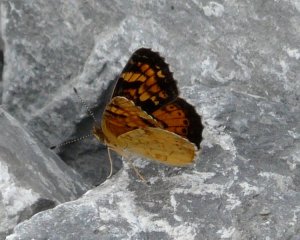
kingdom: Animalia
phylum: Arthropoda
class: Insecta
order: Lepidoptera
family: Nymphalidae
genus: Phyciodes
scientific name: Phyciodes batesii
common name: Tawny Crescent
